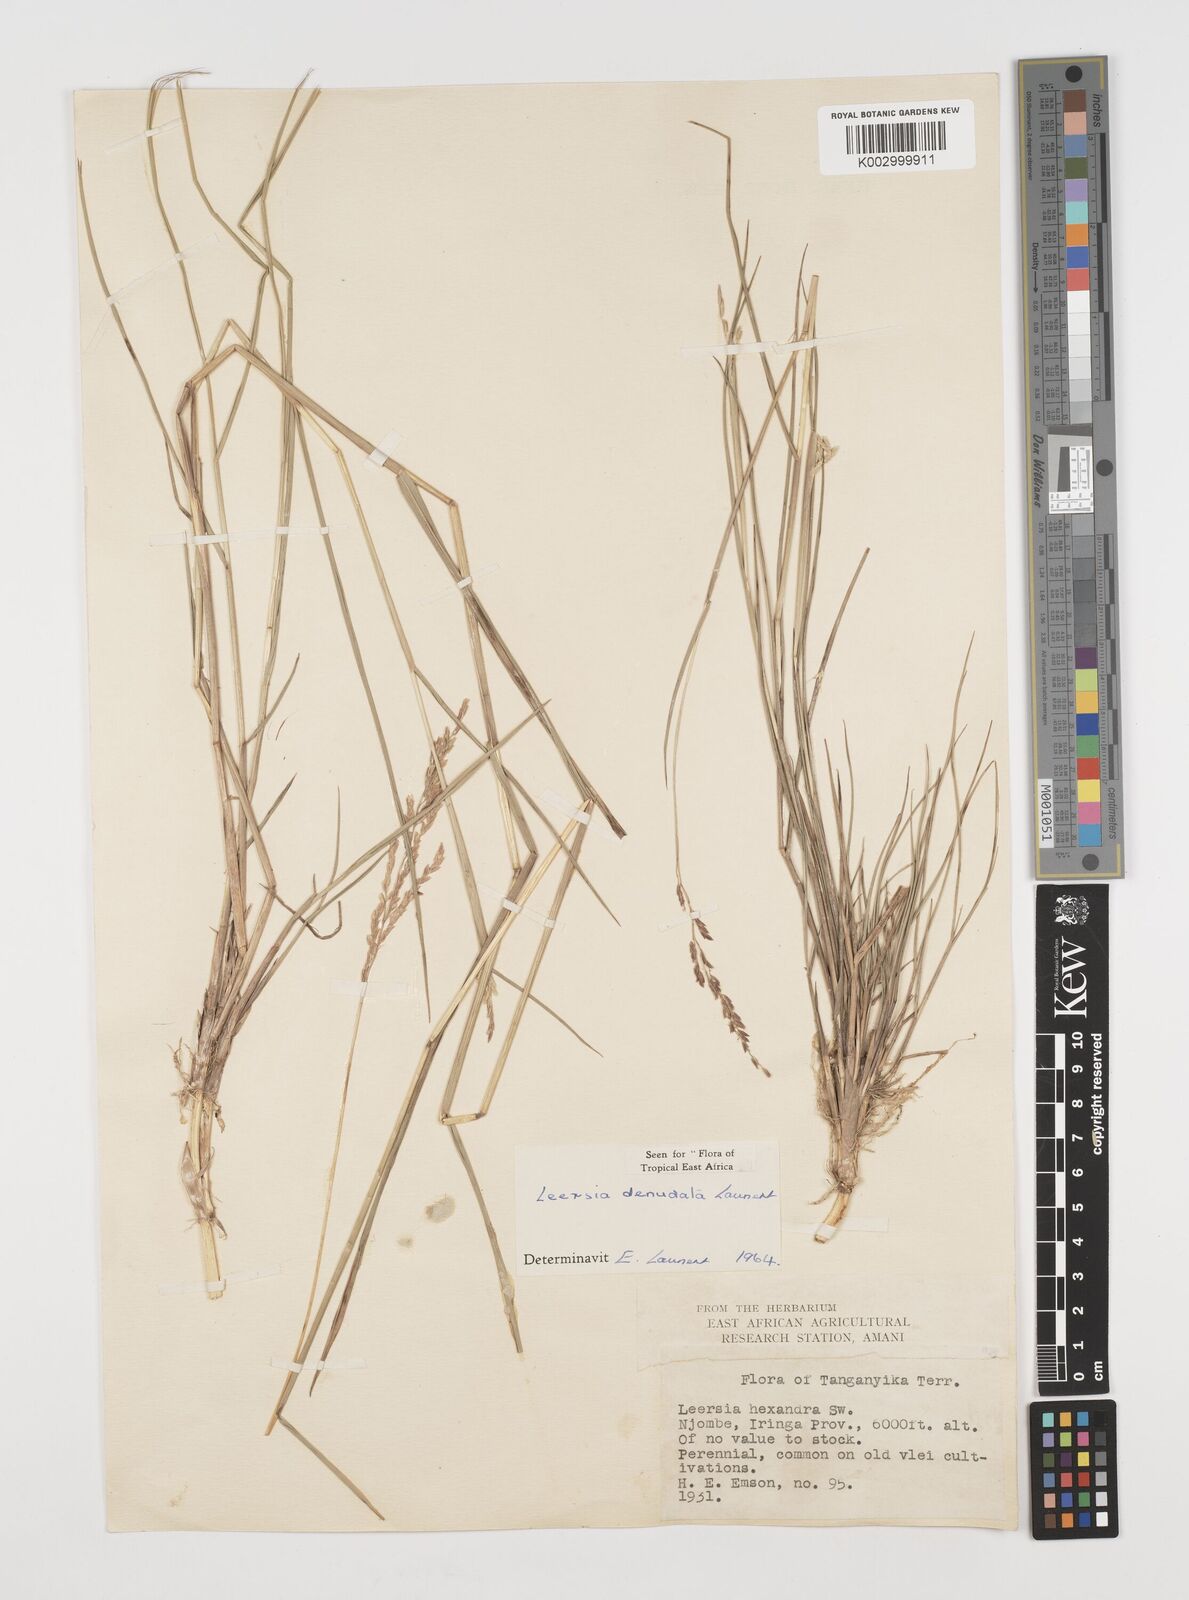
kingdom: Plantae
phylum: Tracheophyta
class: Liliopsida
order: Poales
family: Poaceae
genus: Leersia
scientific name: Leersia denudata
